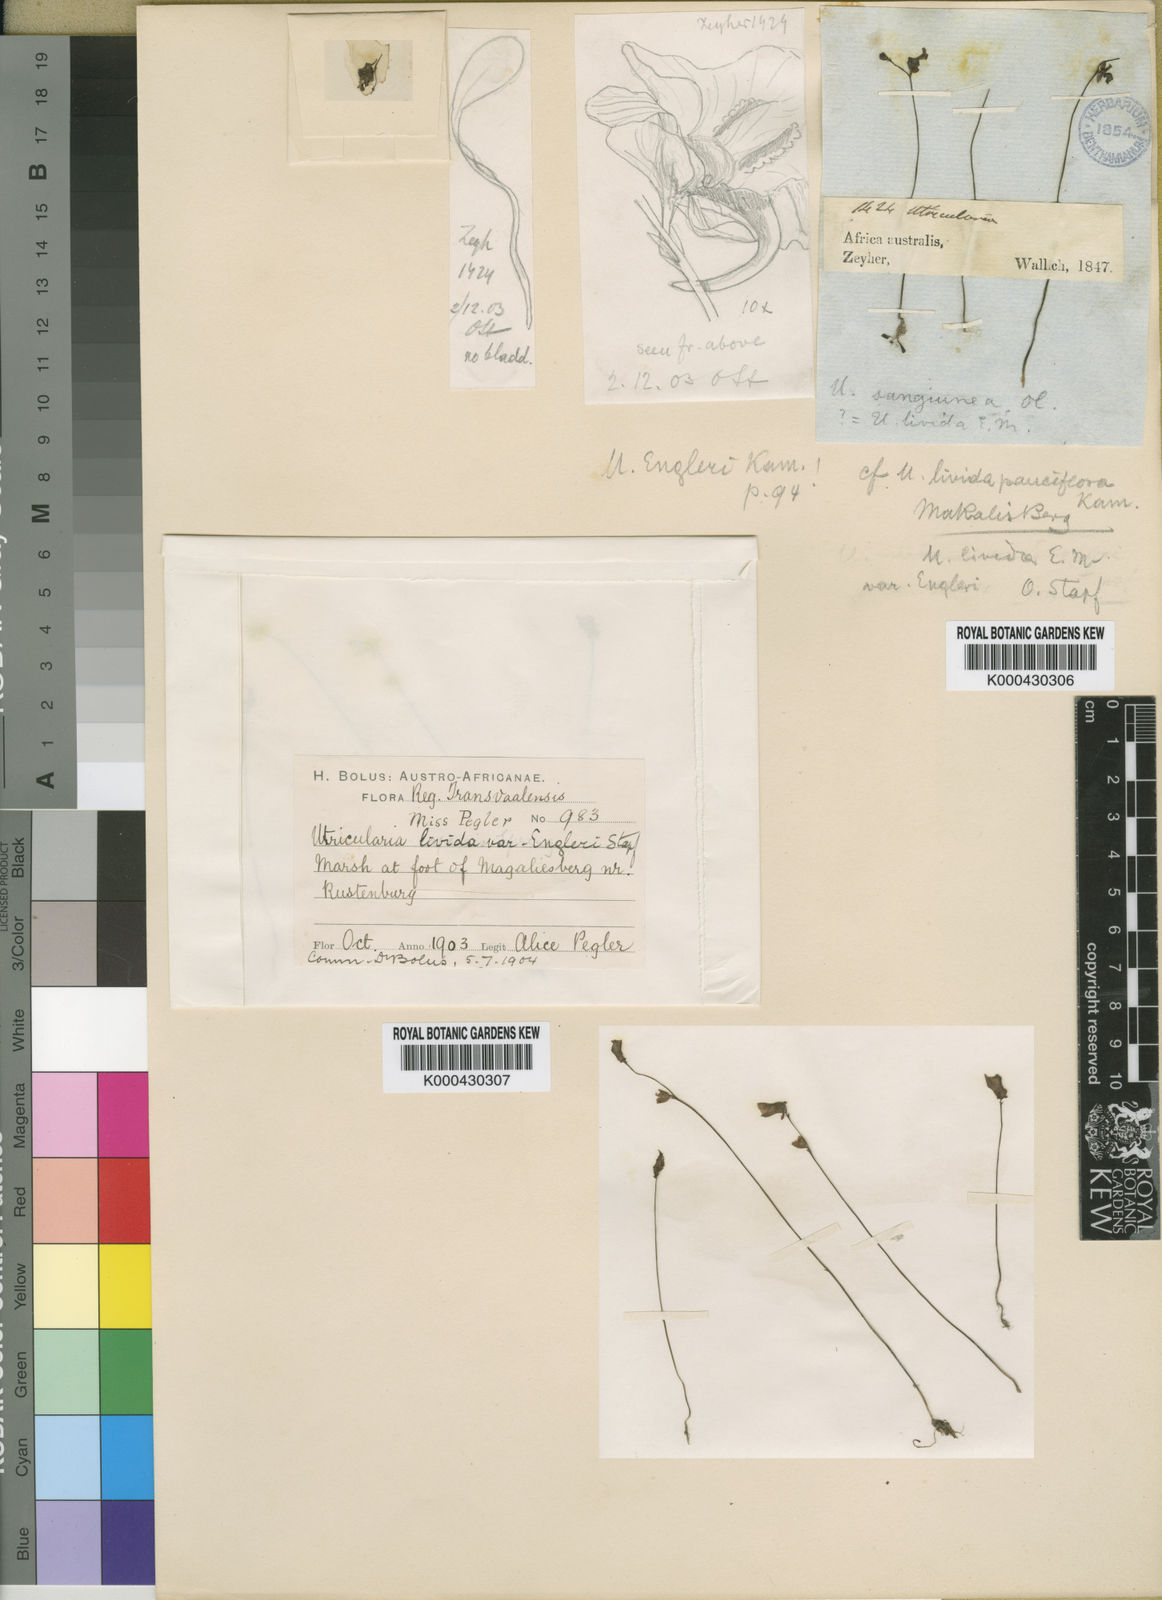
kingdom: Plantae
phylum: Tracheophyta
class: Magnoliopsida
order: Lamiales
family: Lentibulariaceae
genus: Utricularia
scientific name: Utricularia livida
